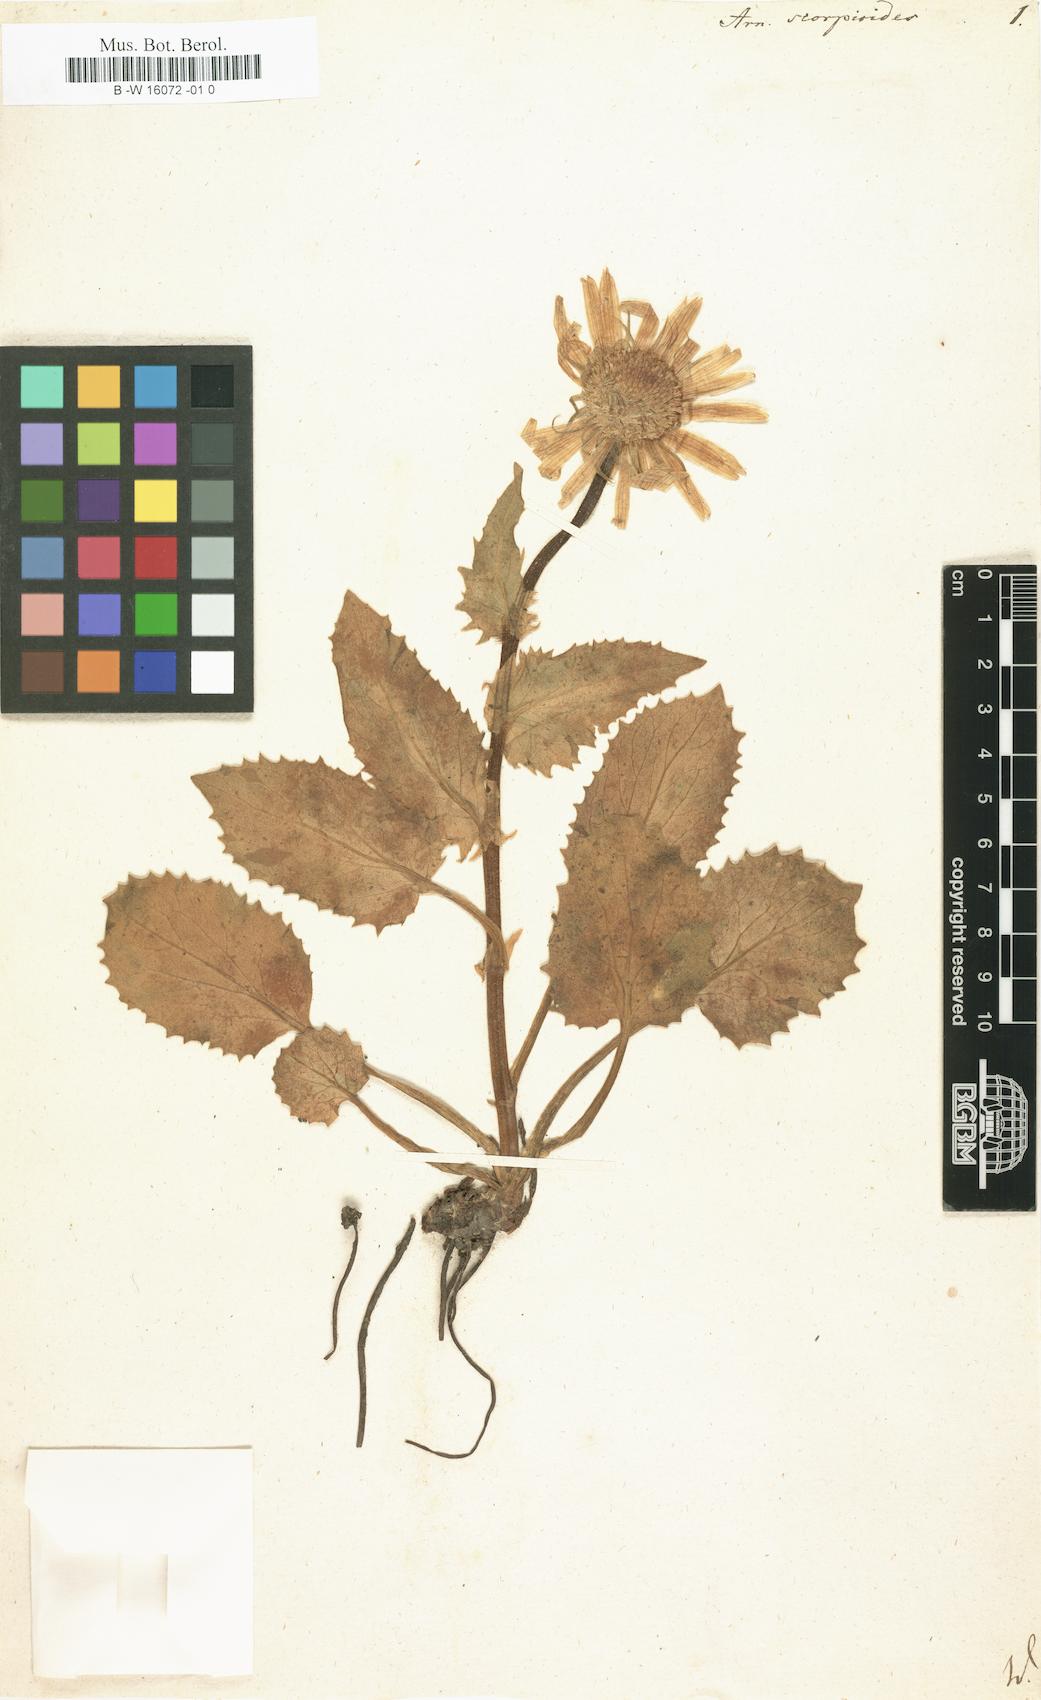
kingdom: Plantae
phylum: Tracheophyta
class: Magnoliopsida
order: Asterales
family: Asteraceae
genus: Doronicum
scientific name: Doronicum grandiflorum
